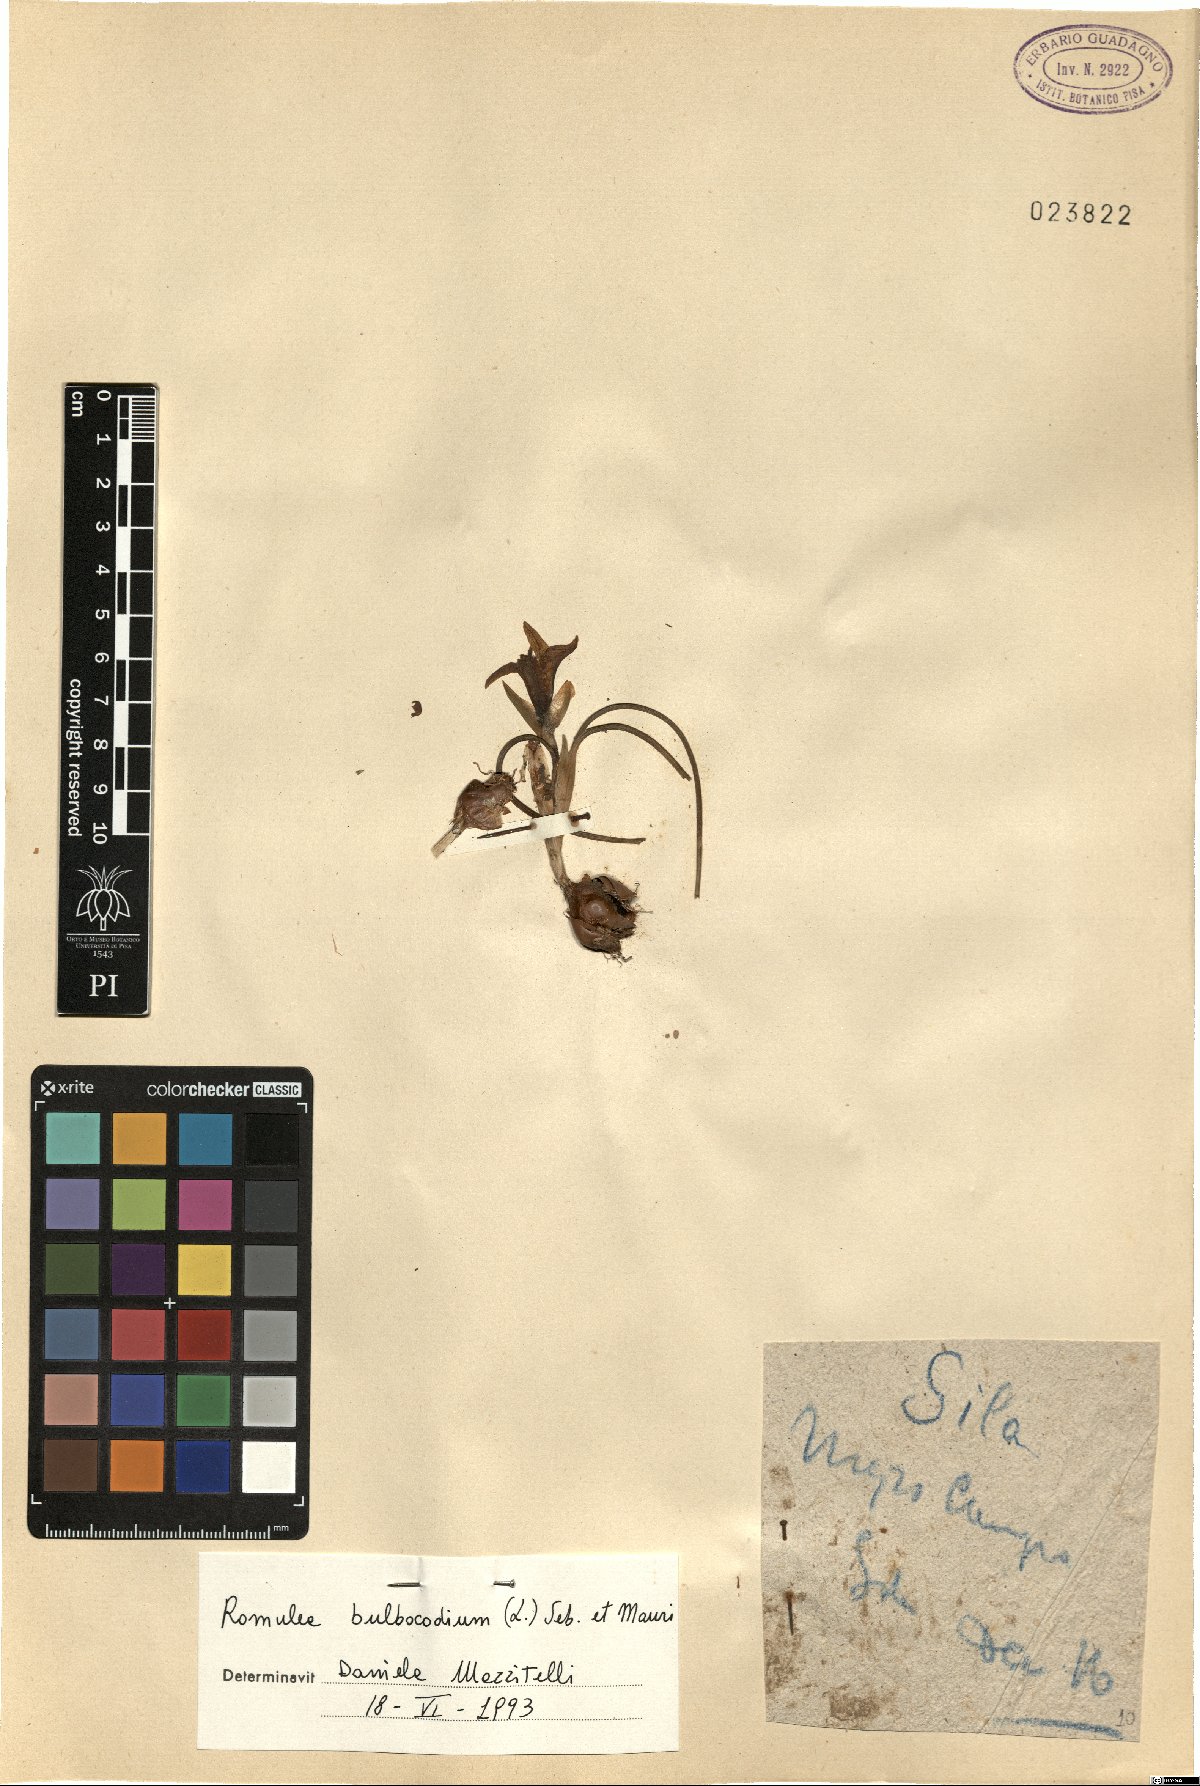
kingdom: Plantae
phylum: Tracheophyta
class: Liliopsida
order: Asparagales
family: Iridaceae
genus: Romulea
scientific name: Romulea bulbocodium
